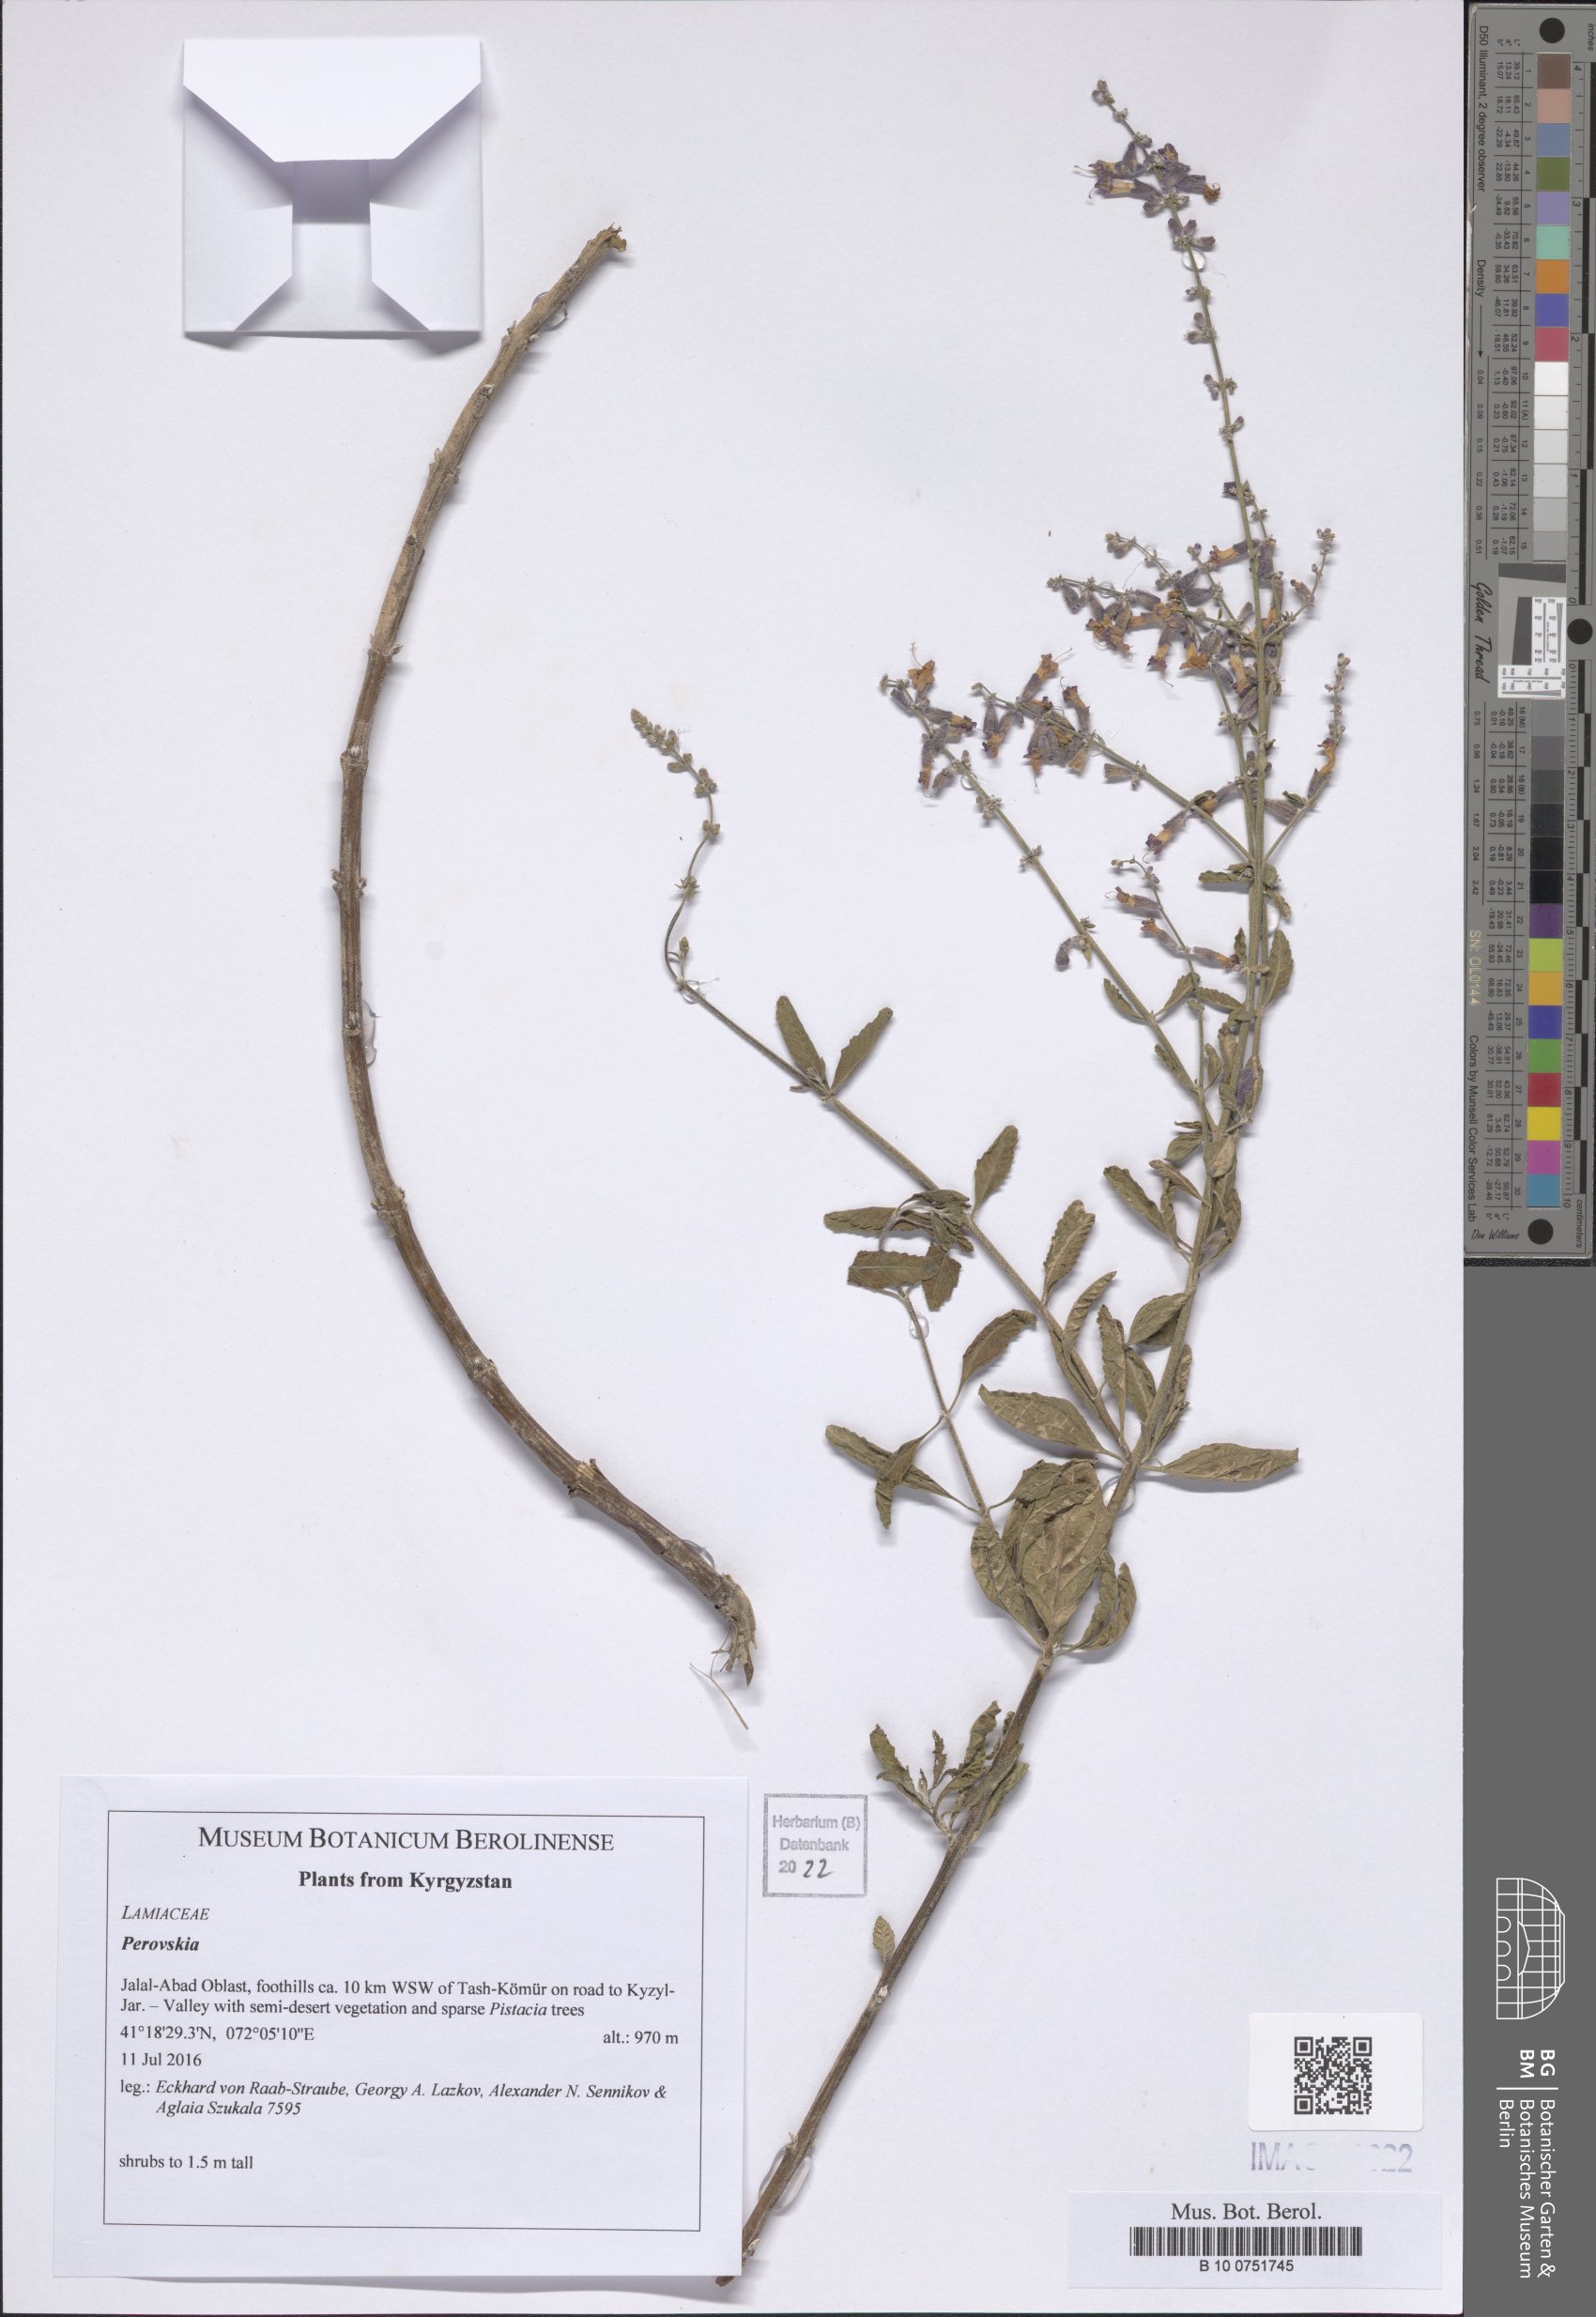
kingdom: Plantae
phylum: Tracheophyta
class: Magnoliopsida
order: Lamiales
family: Lamiaceae
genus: Salvia
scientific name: Salvia
